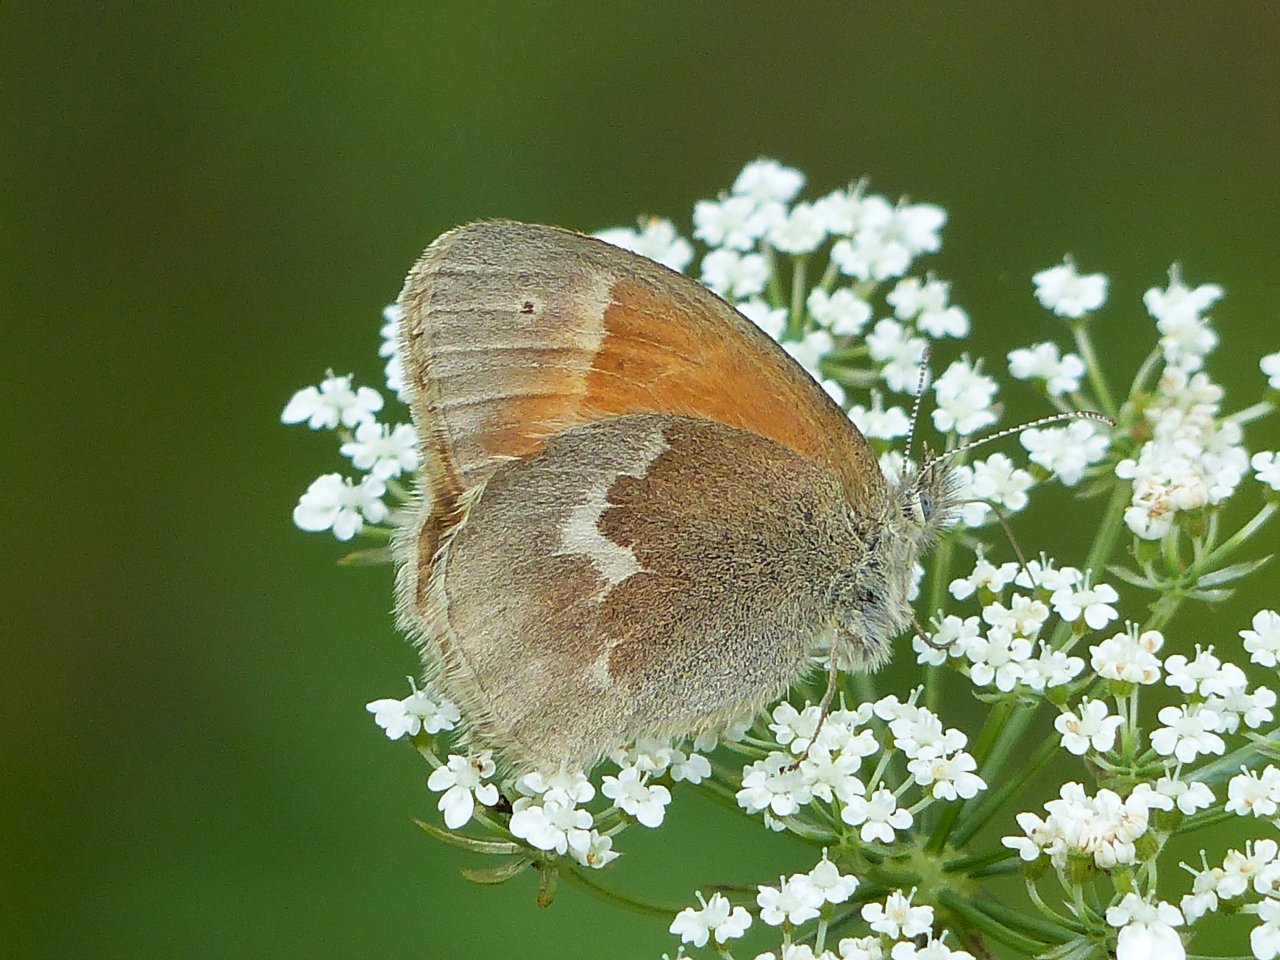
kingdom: Animalia
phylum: Arthropoda
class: Insecta
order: Lepidoptera
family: Nymphalidae
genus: Coenonympha
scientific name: Coenonympha tullia
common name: Large Heath
